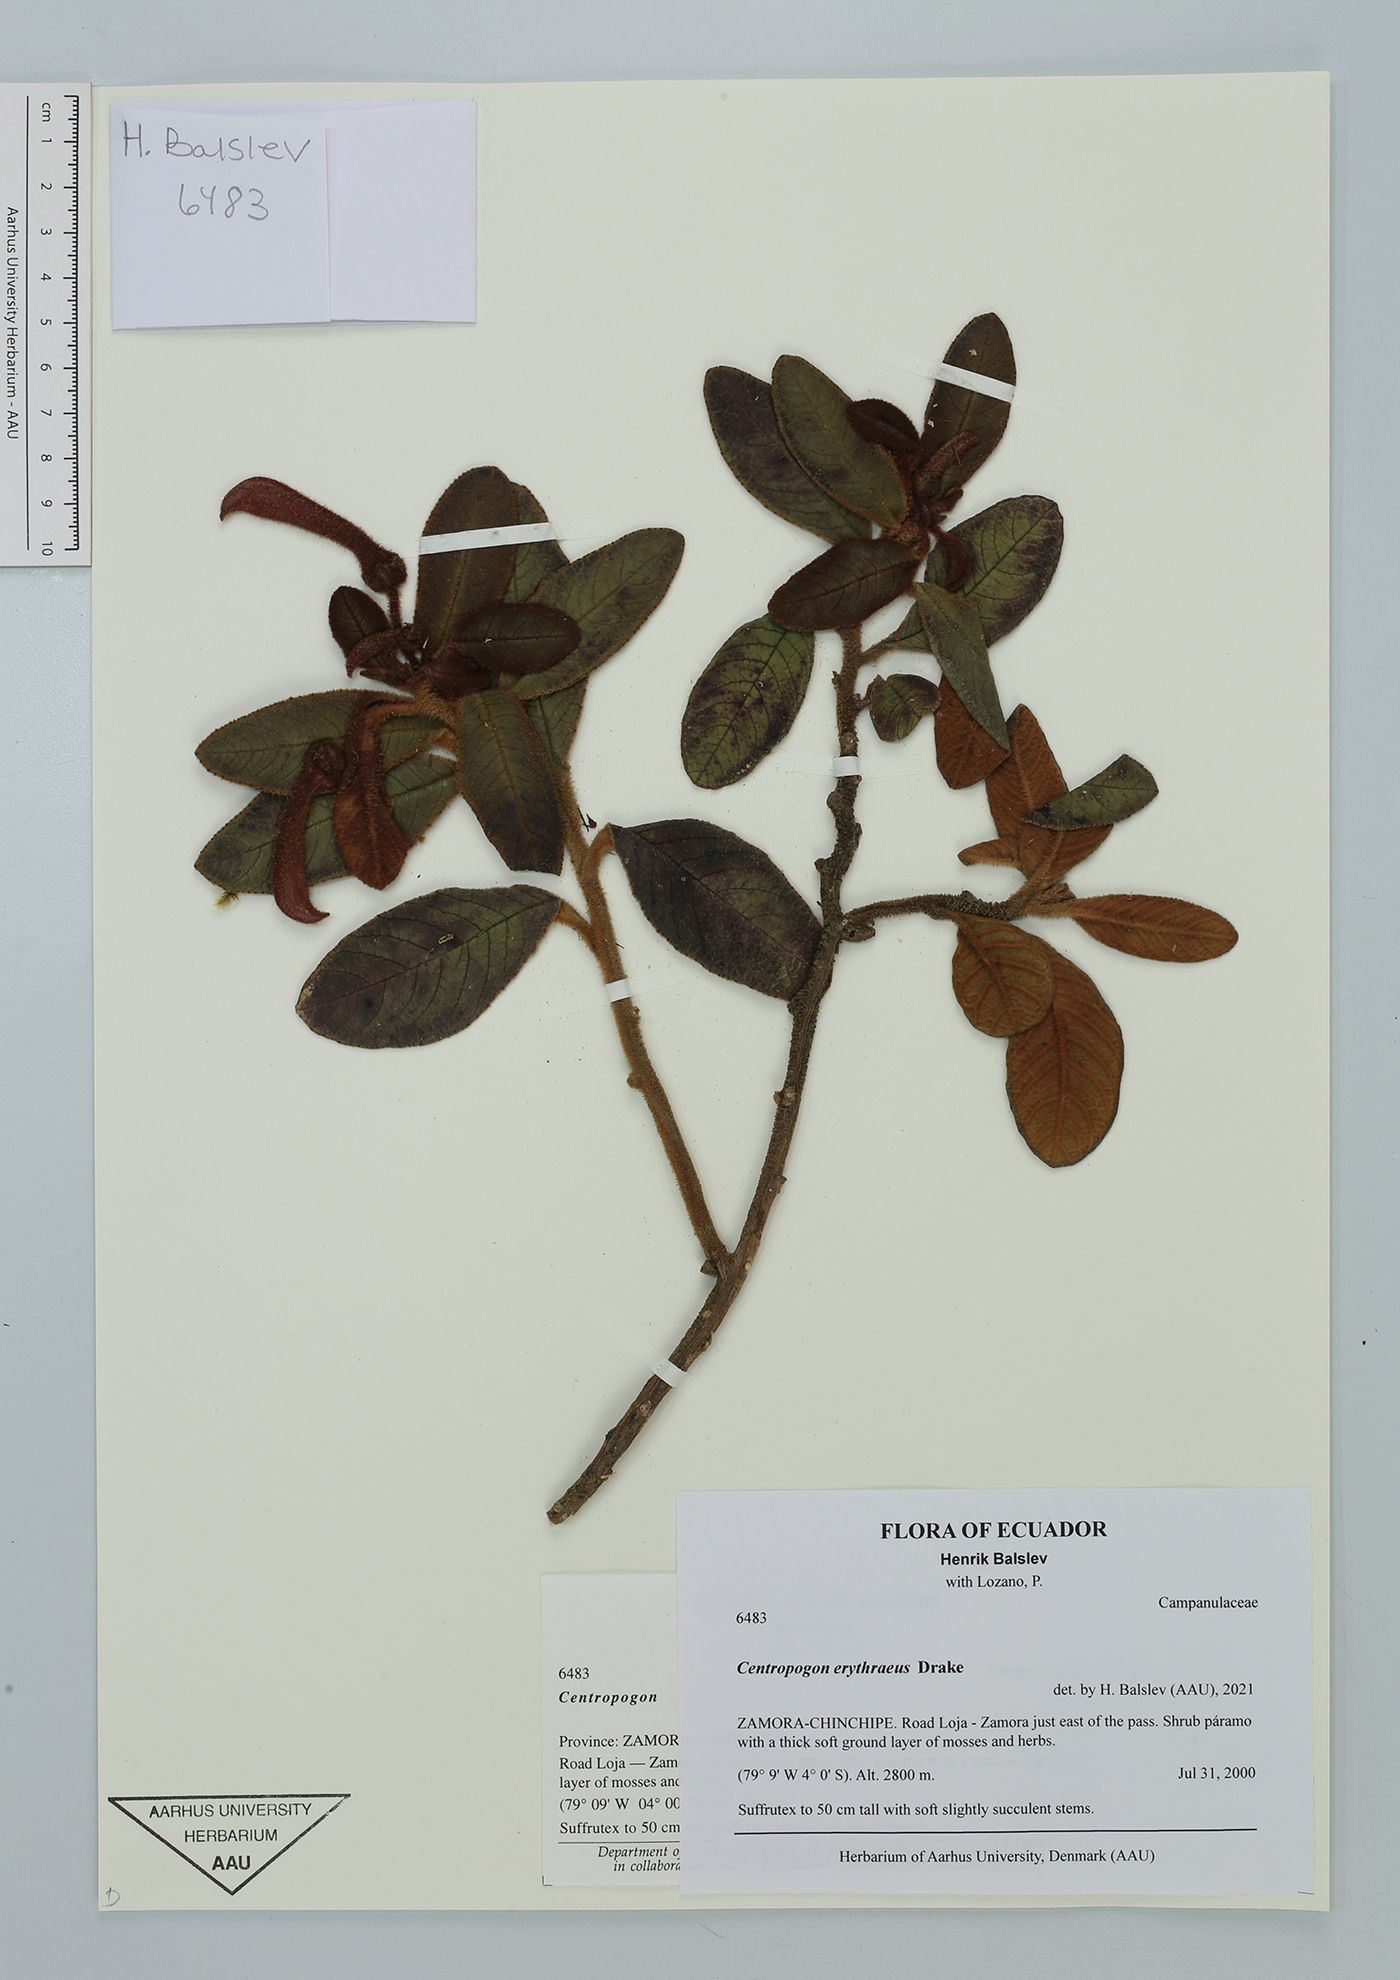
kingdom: Plantae
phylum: Tracheophyta
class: Magnoliopsida
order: Asterales
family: Campanulaceae
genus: Centropogon
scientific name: Centropogon erythraeus
